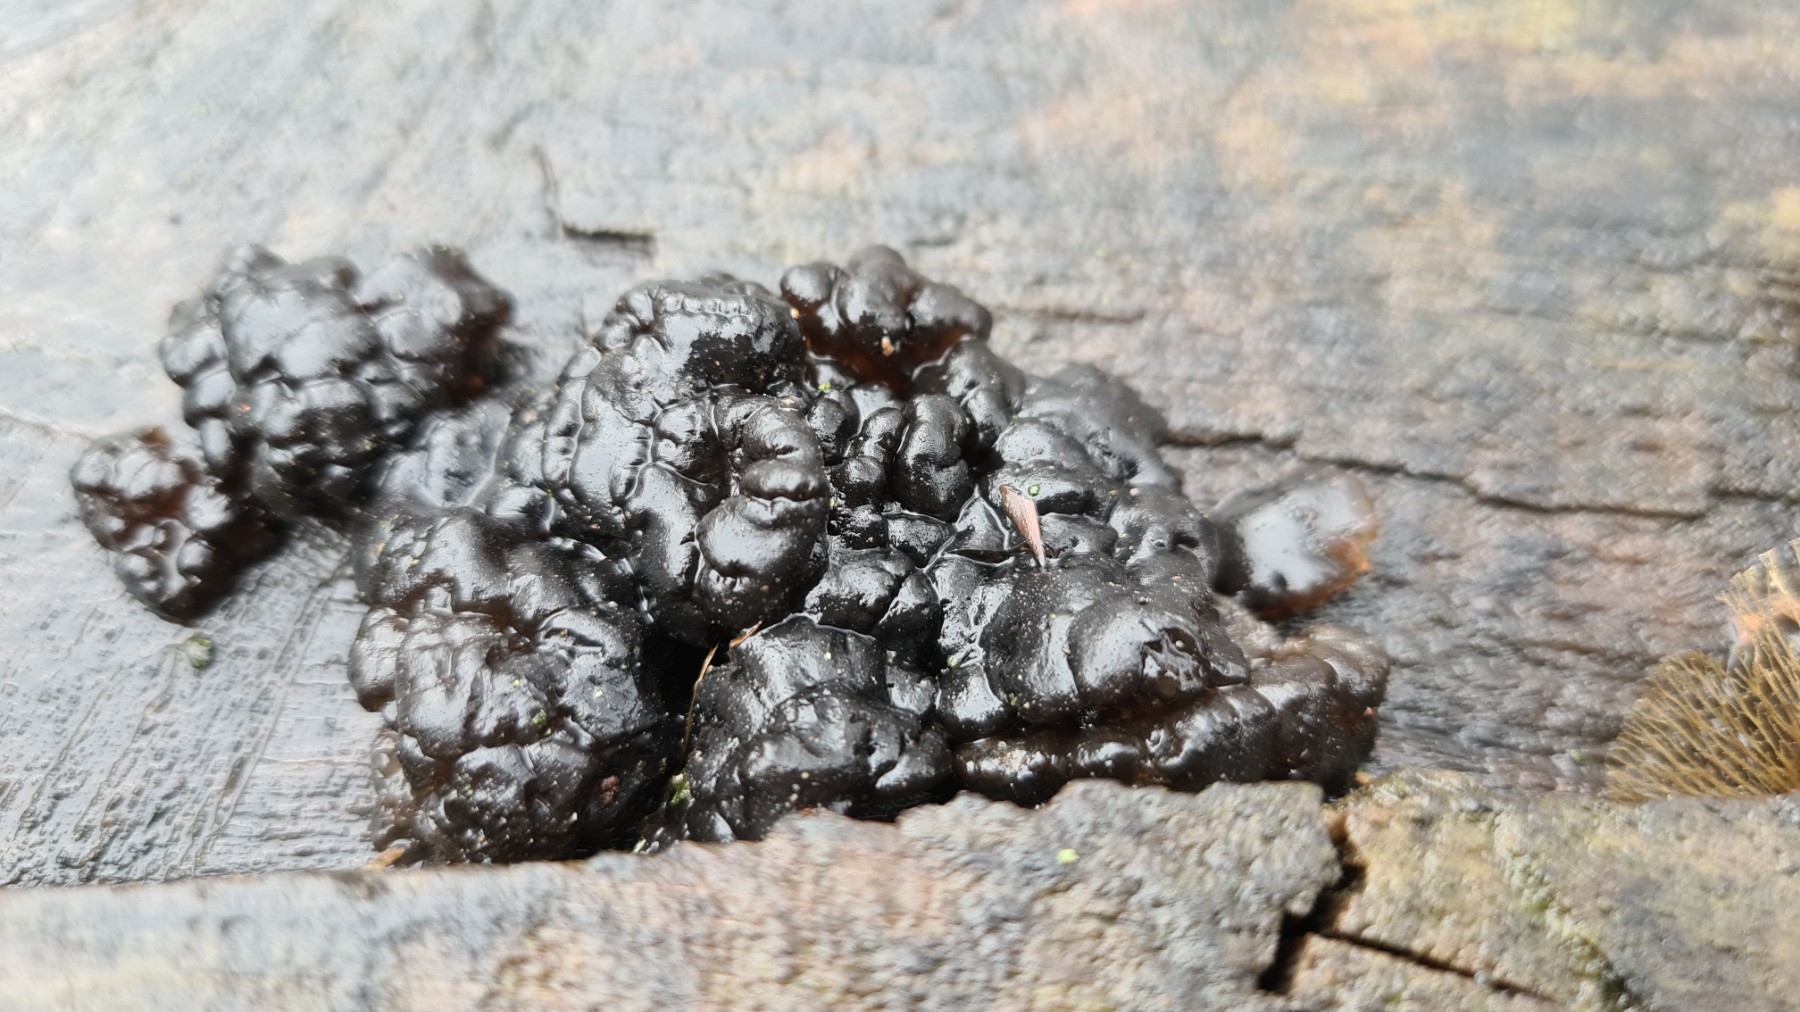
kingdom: Fungi
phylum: Basidiomycota
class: Agaricomycetes
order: Auriculariales
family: Auriculariaceae
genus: Exidia
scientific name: Exidia nigricans
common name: almindelig bævretop
